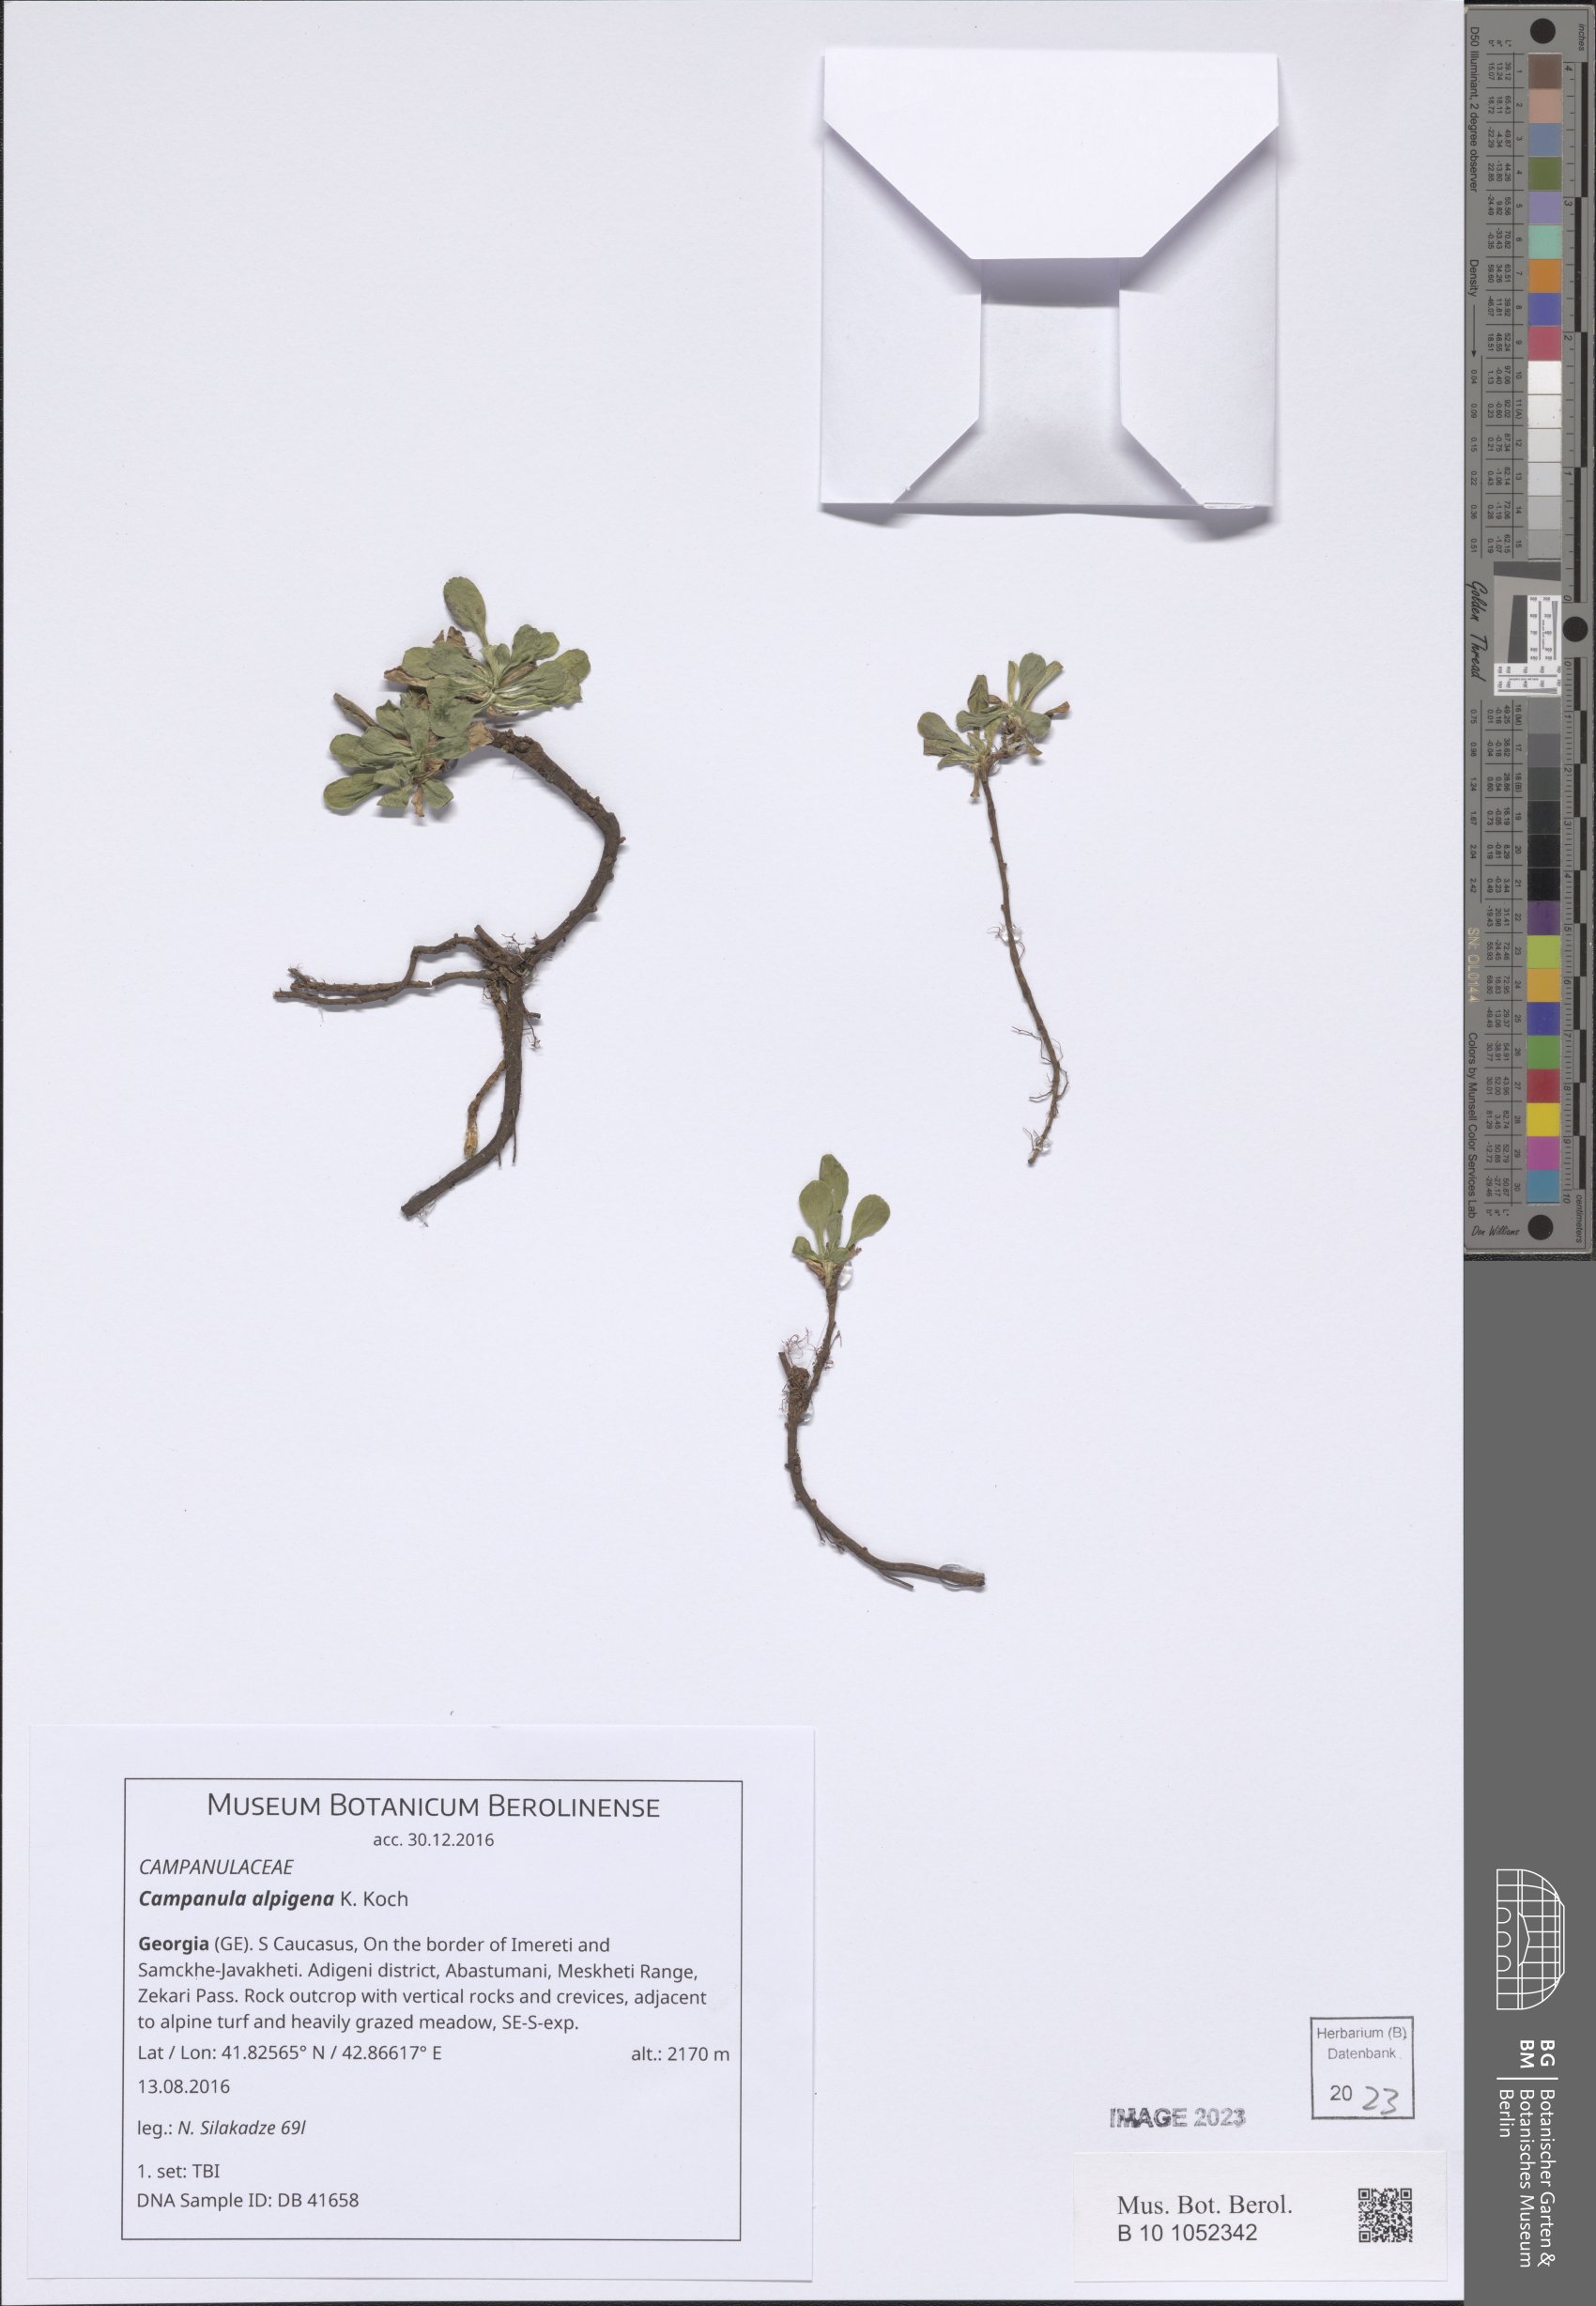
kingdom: Plantae
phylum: Tracheophyta
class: Magnoliopsida
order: Asterales
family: Campanulaceae
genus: Campanula
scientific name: Campanula saxifraga
